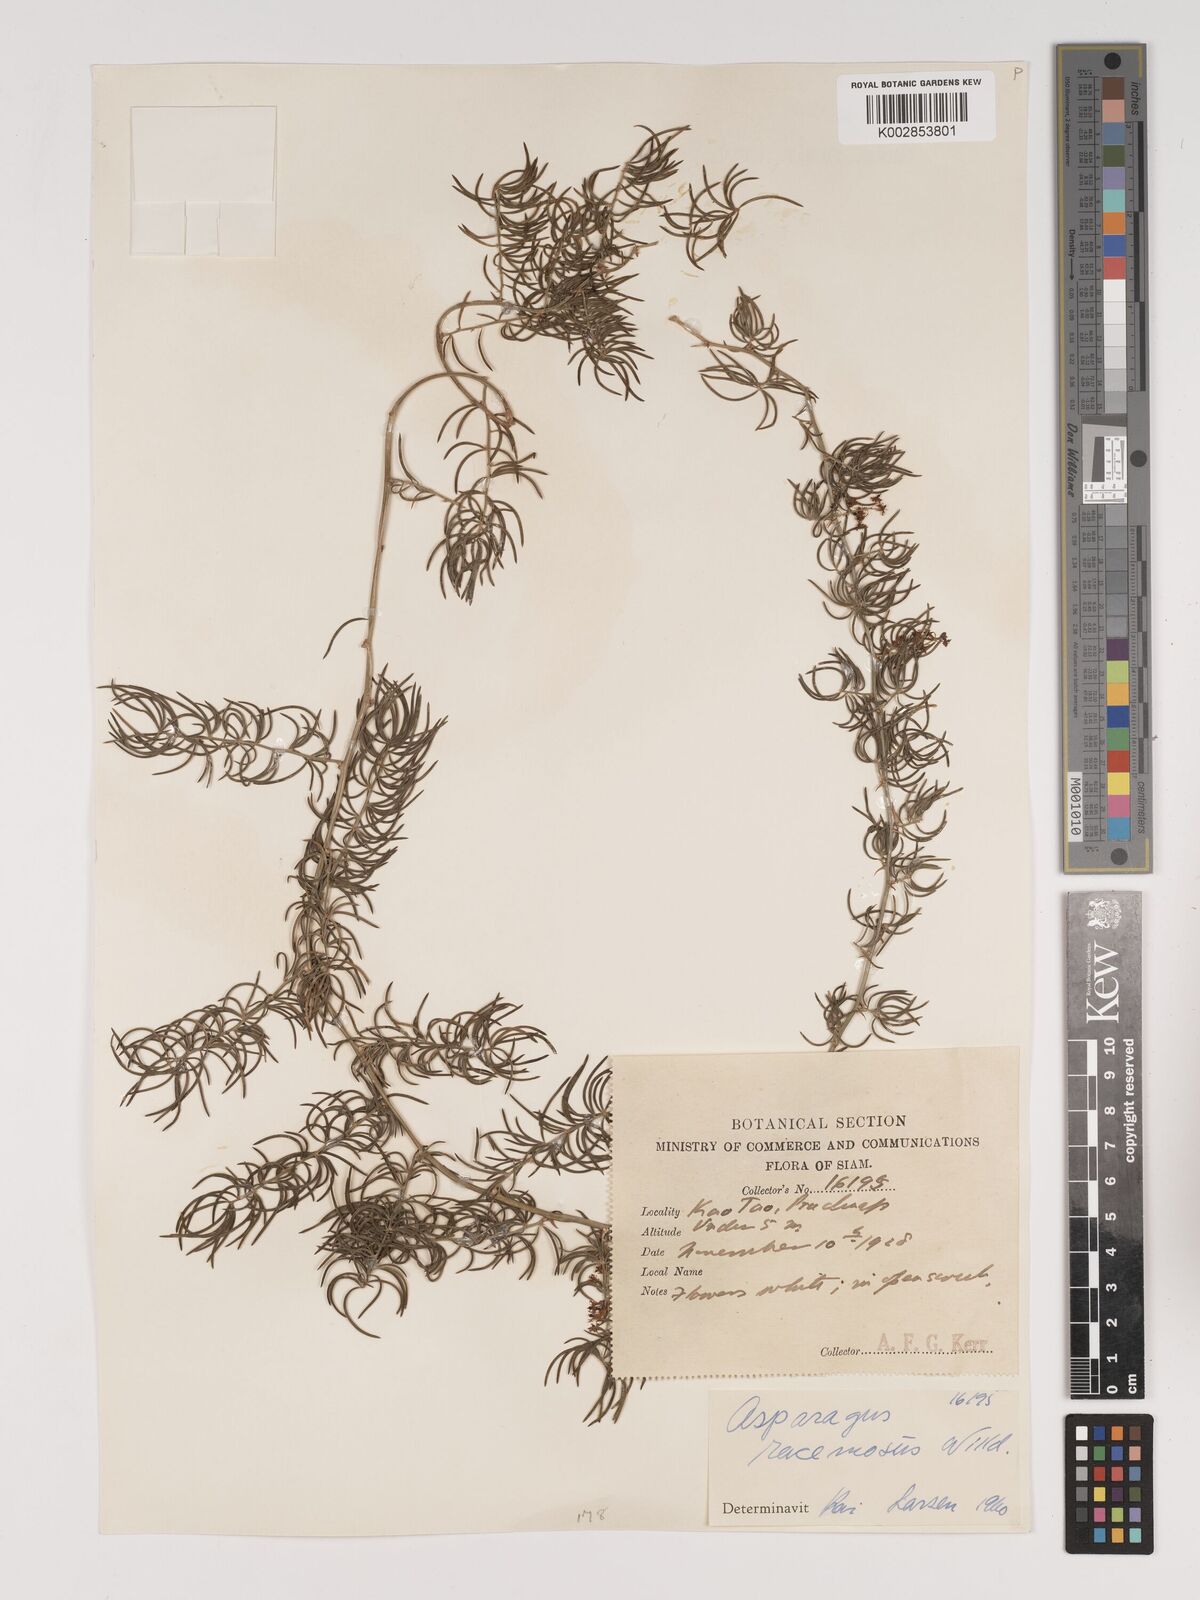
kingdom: Plantae
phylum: Tracheophyta
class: Liliopsida
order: Asparagales
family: Asparagaceae
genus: Asparagus
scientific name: Asparagus racemosus
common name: Asparagus-fern
